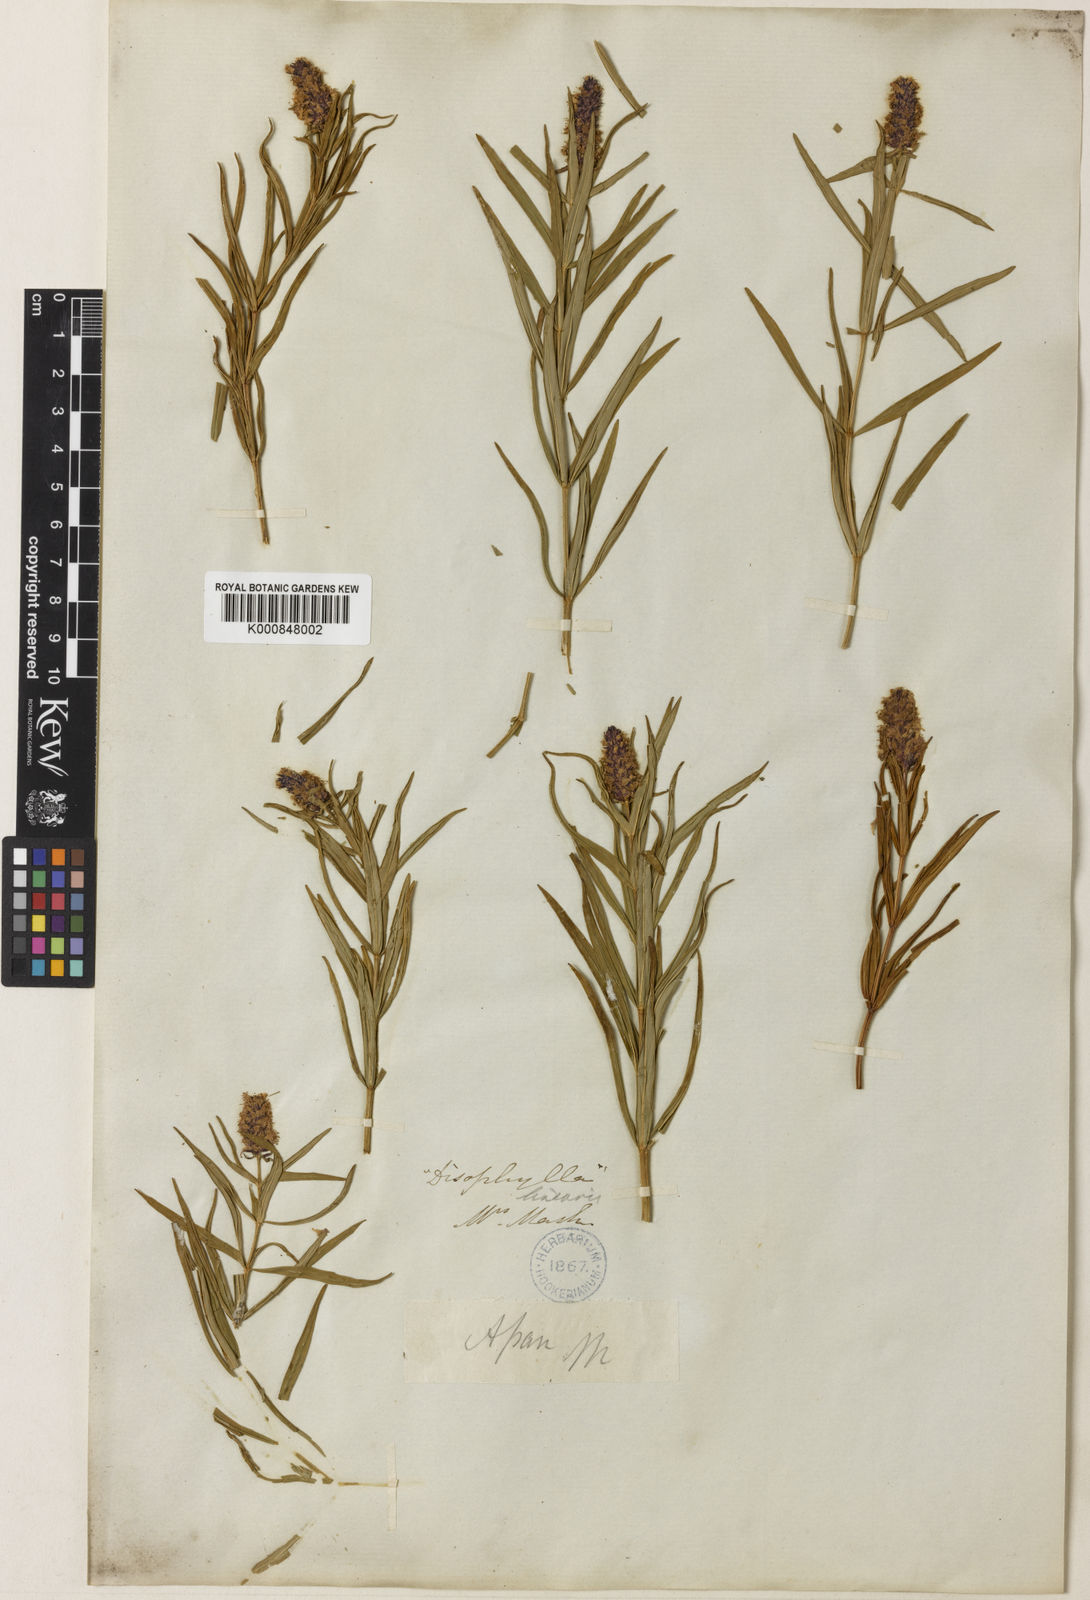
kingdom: Plantae
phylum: Tracheophyta
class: Magnoliopsida
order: Lamiales
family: Lamiaceae
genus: Pogostemon
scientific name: Pogostemon linearis
